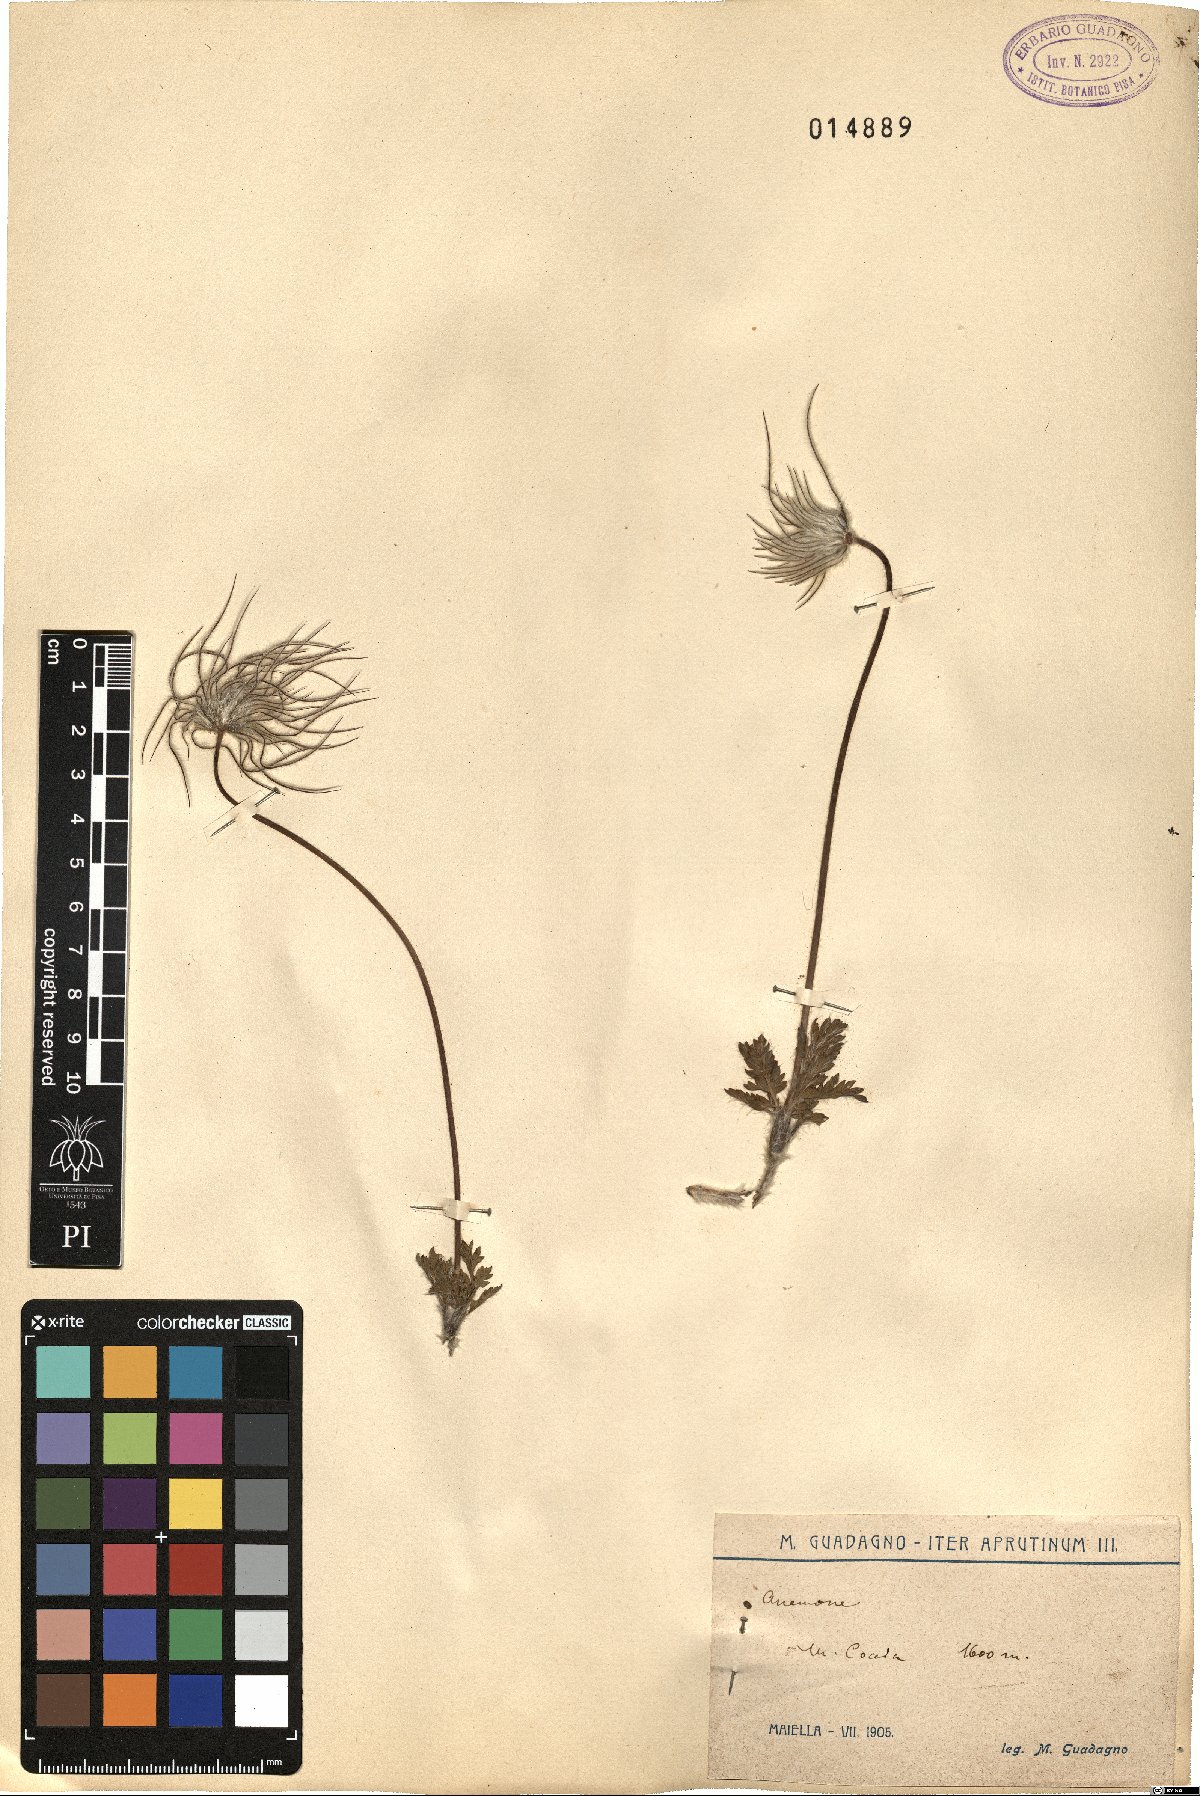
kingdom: Plantae
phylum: Tracheophyta
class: Magnoliopsida
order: Ranunculales
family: Ranunculaceae
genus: Anemone
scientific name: Anemone
